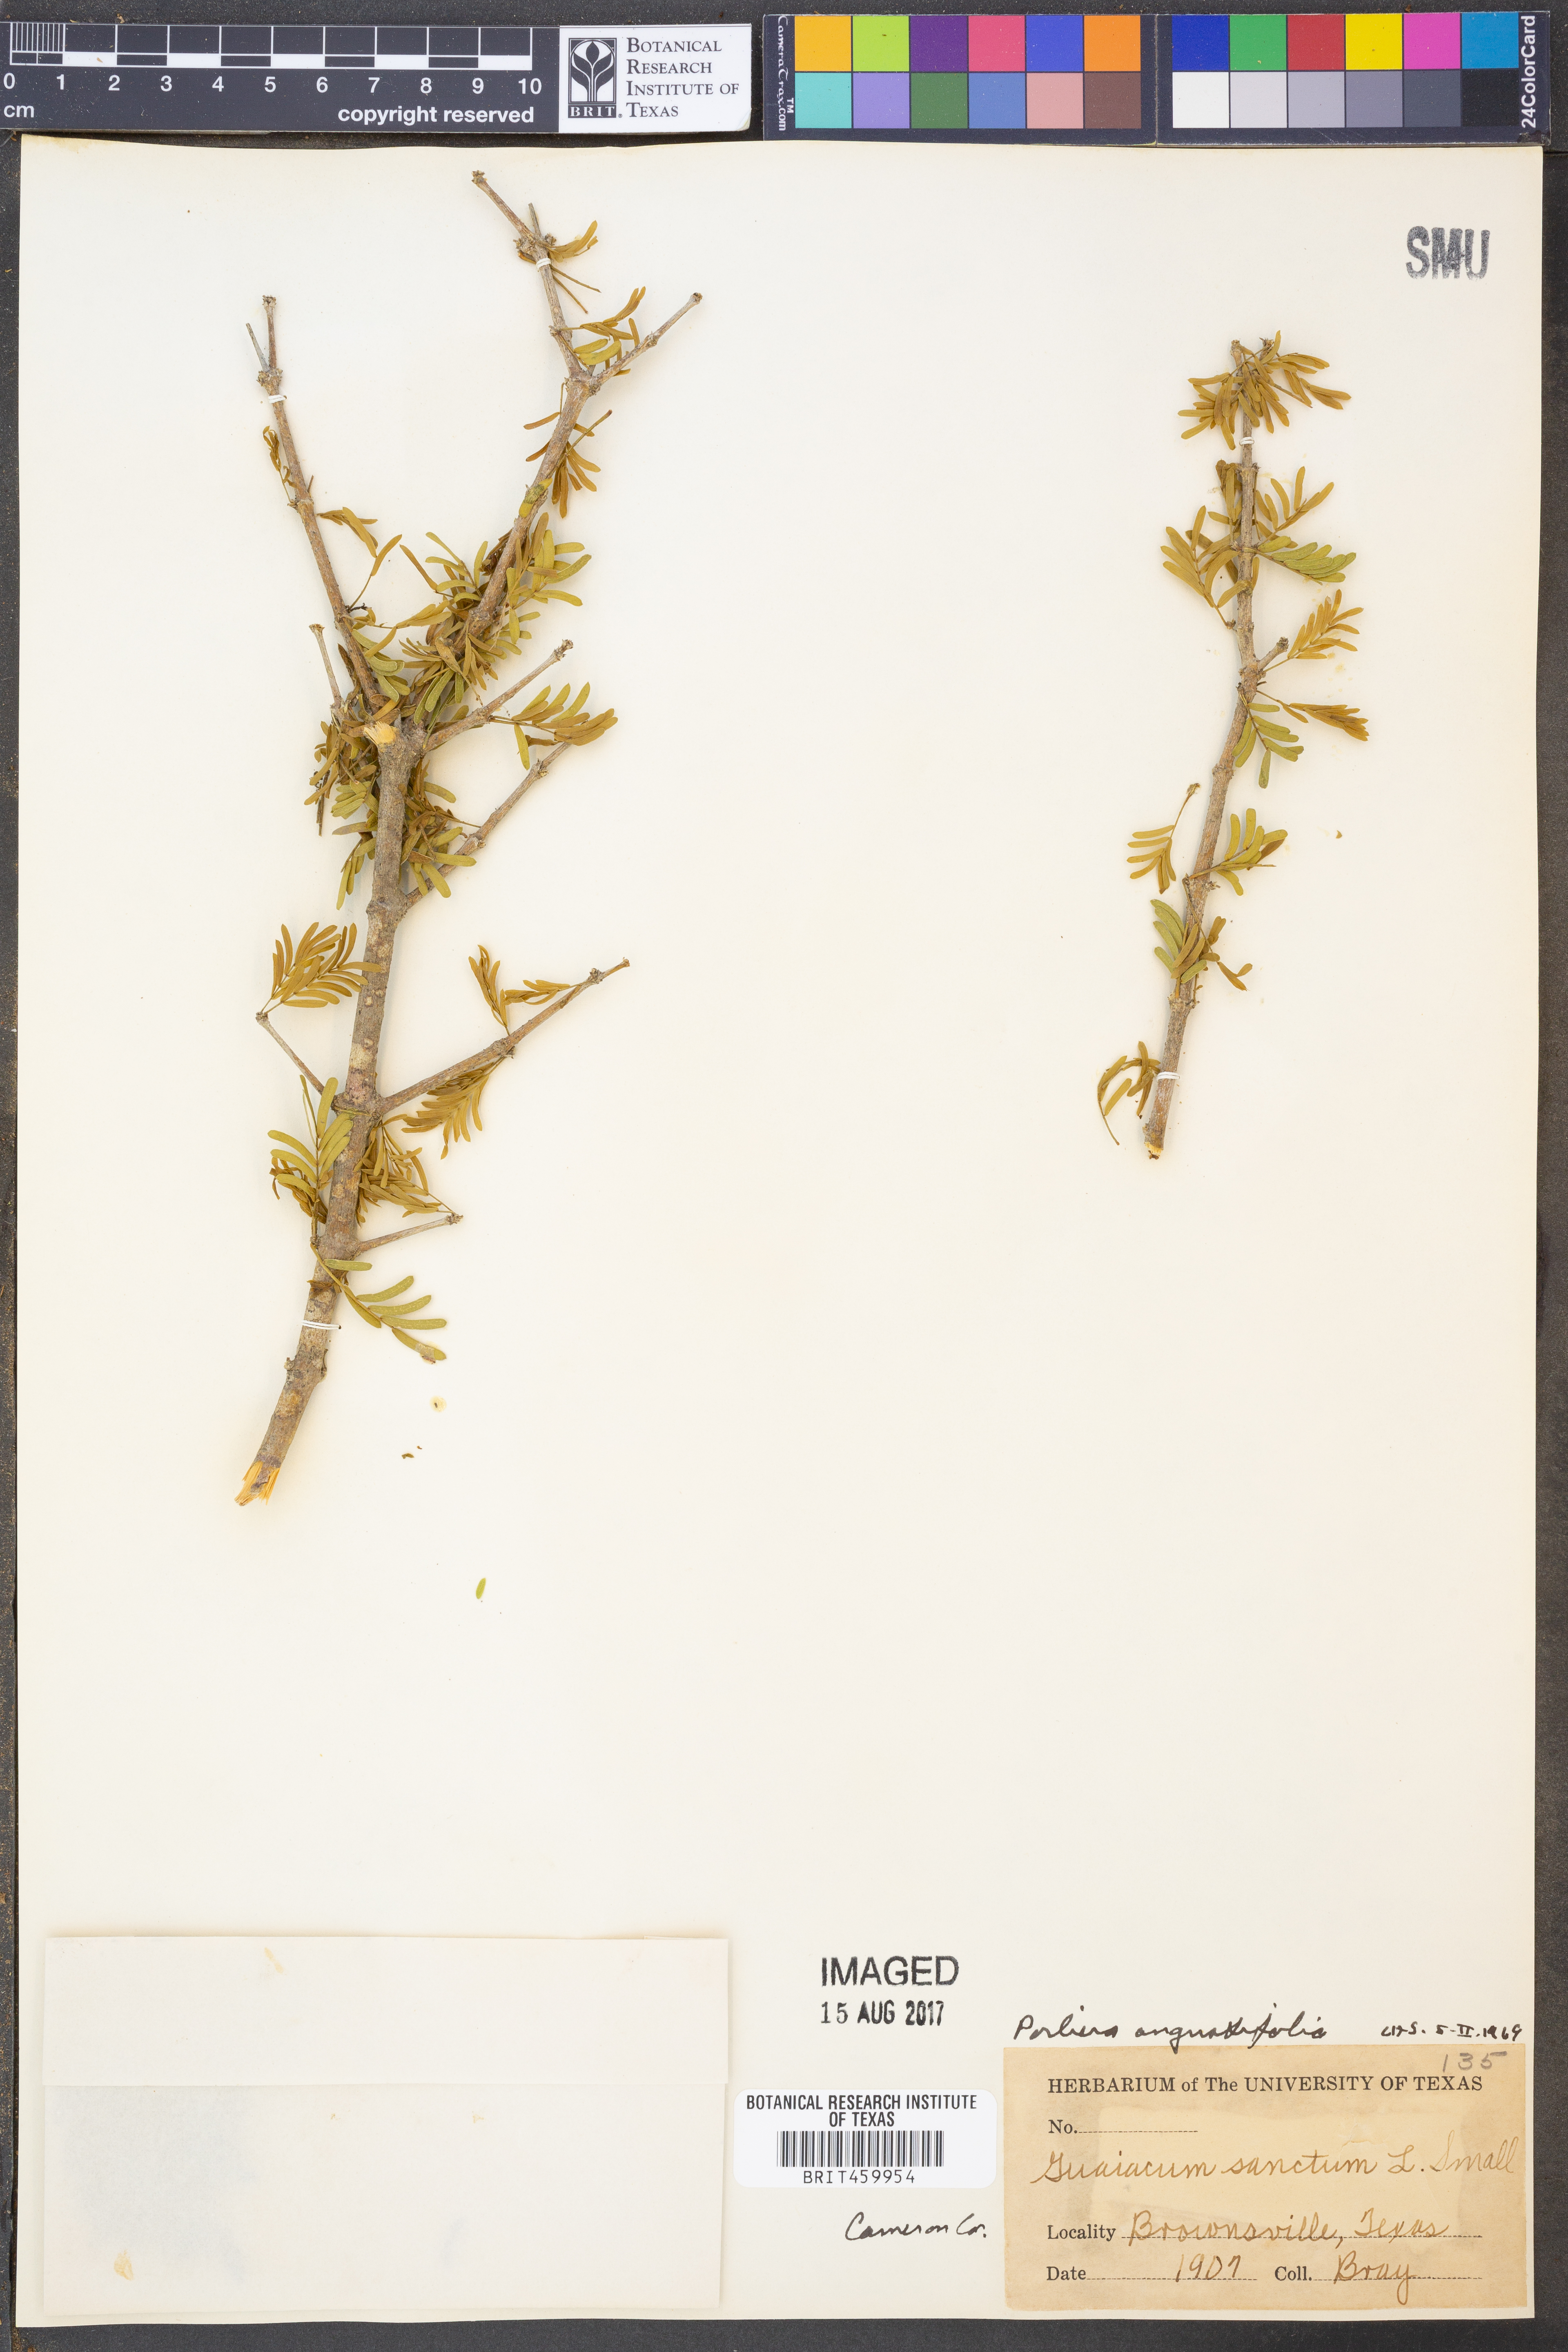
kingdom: Plantae
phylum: Tracheophyta
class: Magnoliopsida
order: Zygophyllales
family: Zygophyllaceae
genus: Porlieria
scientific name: Porlieria angustifolia
